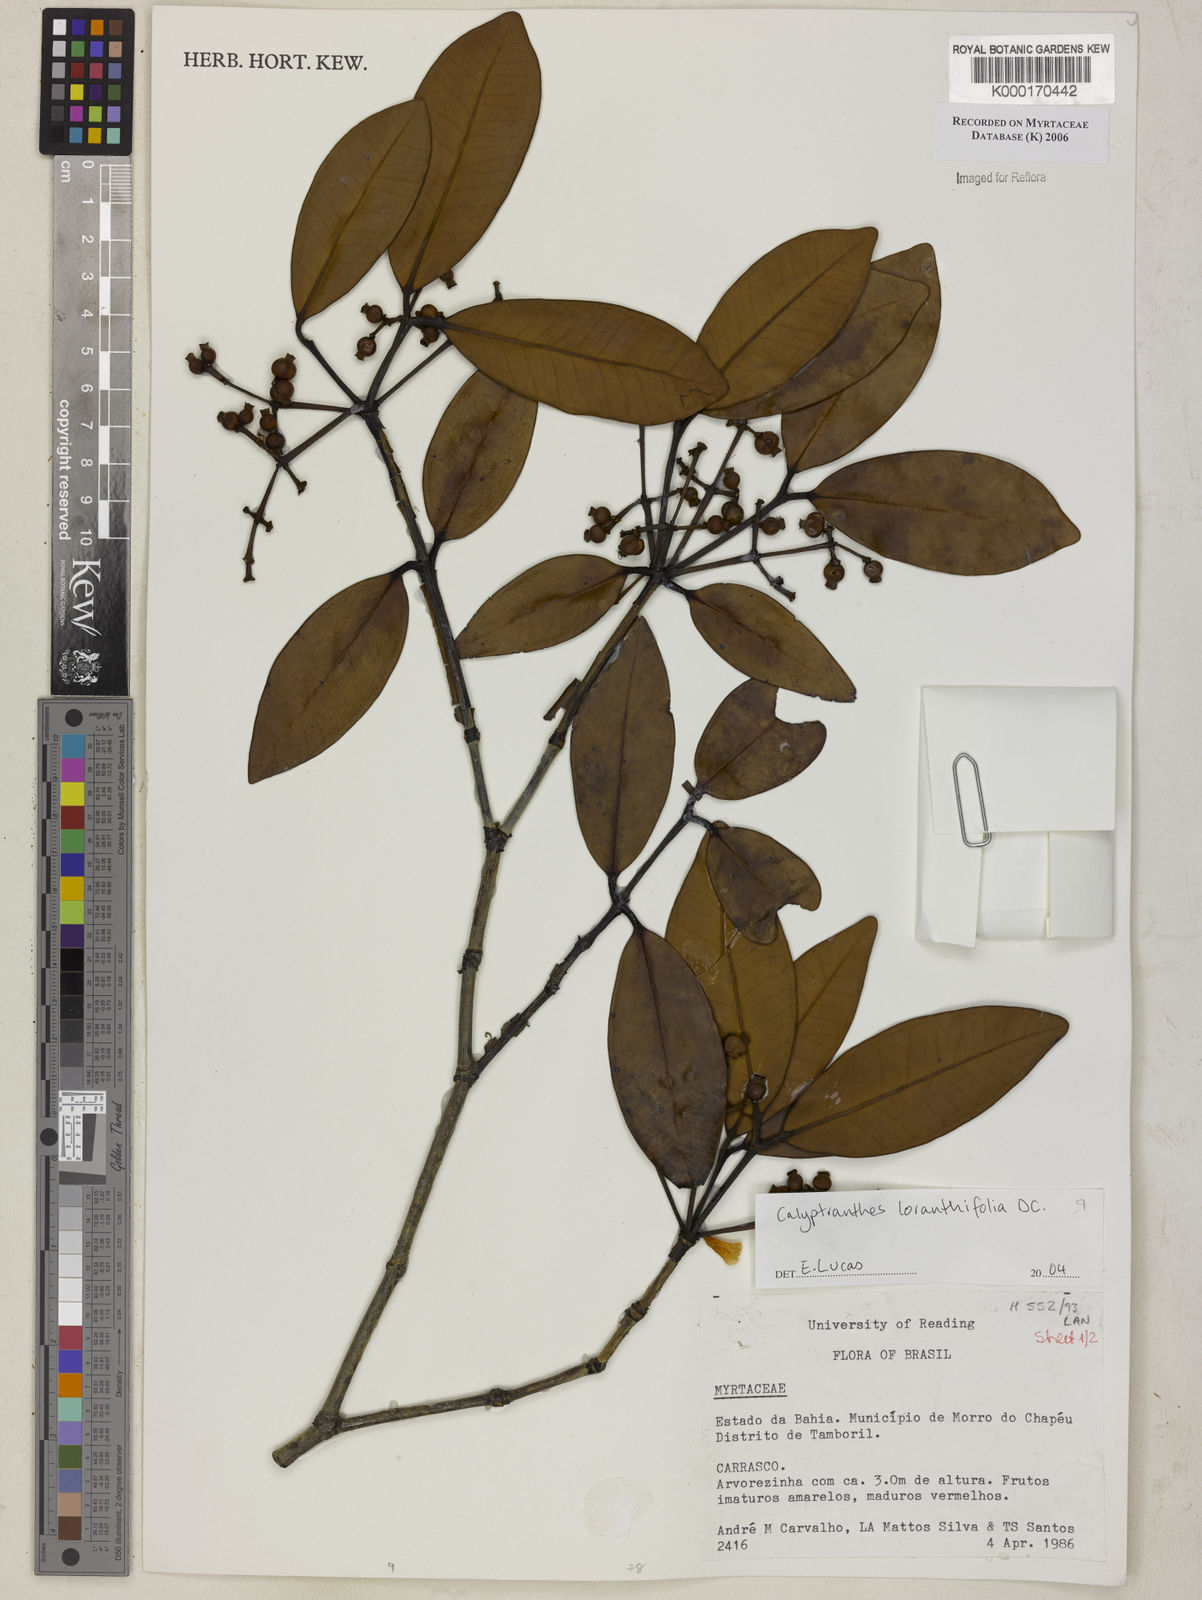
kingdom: Plantae
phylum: Tracheophyta
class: Magnoliopsida
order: Myrtales
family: Myrtaceae
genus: Myrcia
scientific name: Myrcia loranthifolia
